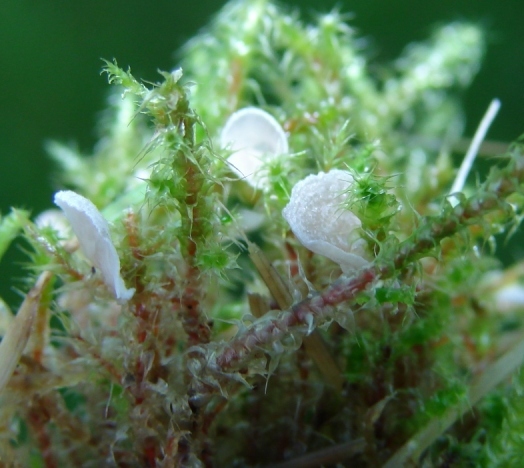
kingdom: Fungi
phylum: Basidiomycota
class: Agaricomycetes
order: Agaricales
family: Hygrophoraceae
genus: Arrhenia
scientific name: Arrhenia retiruga
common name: lille fontænehat
